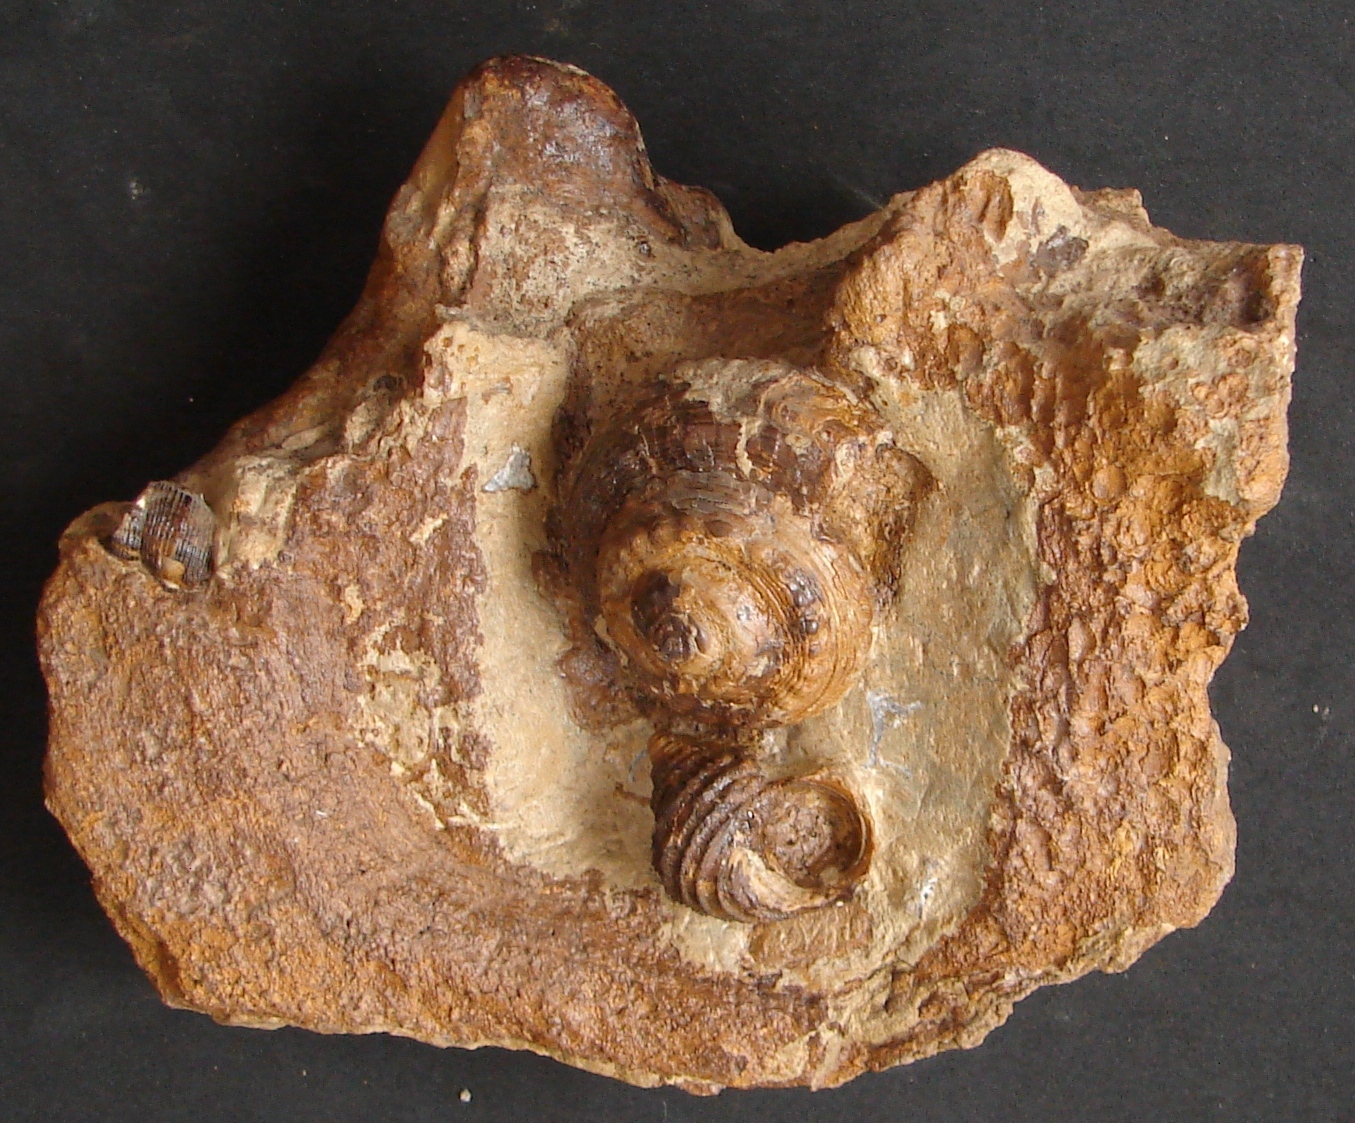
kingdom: Animalia
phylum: Mollusca
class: Gastropoda
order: Pleurotomariida
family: Pleurotomariidae
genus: Obornella
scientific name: Obornella Pleurotomaria lentiformis
